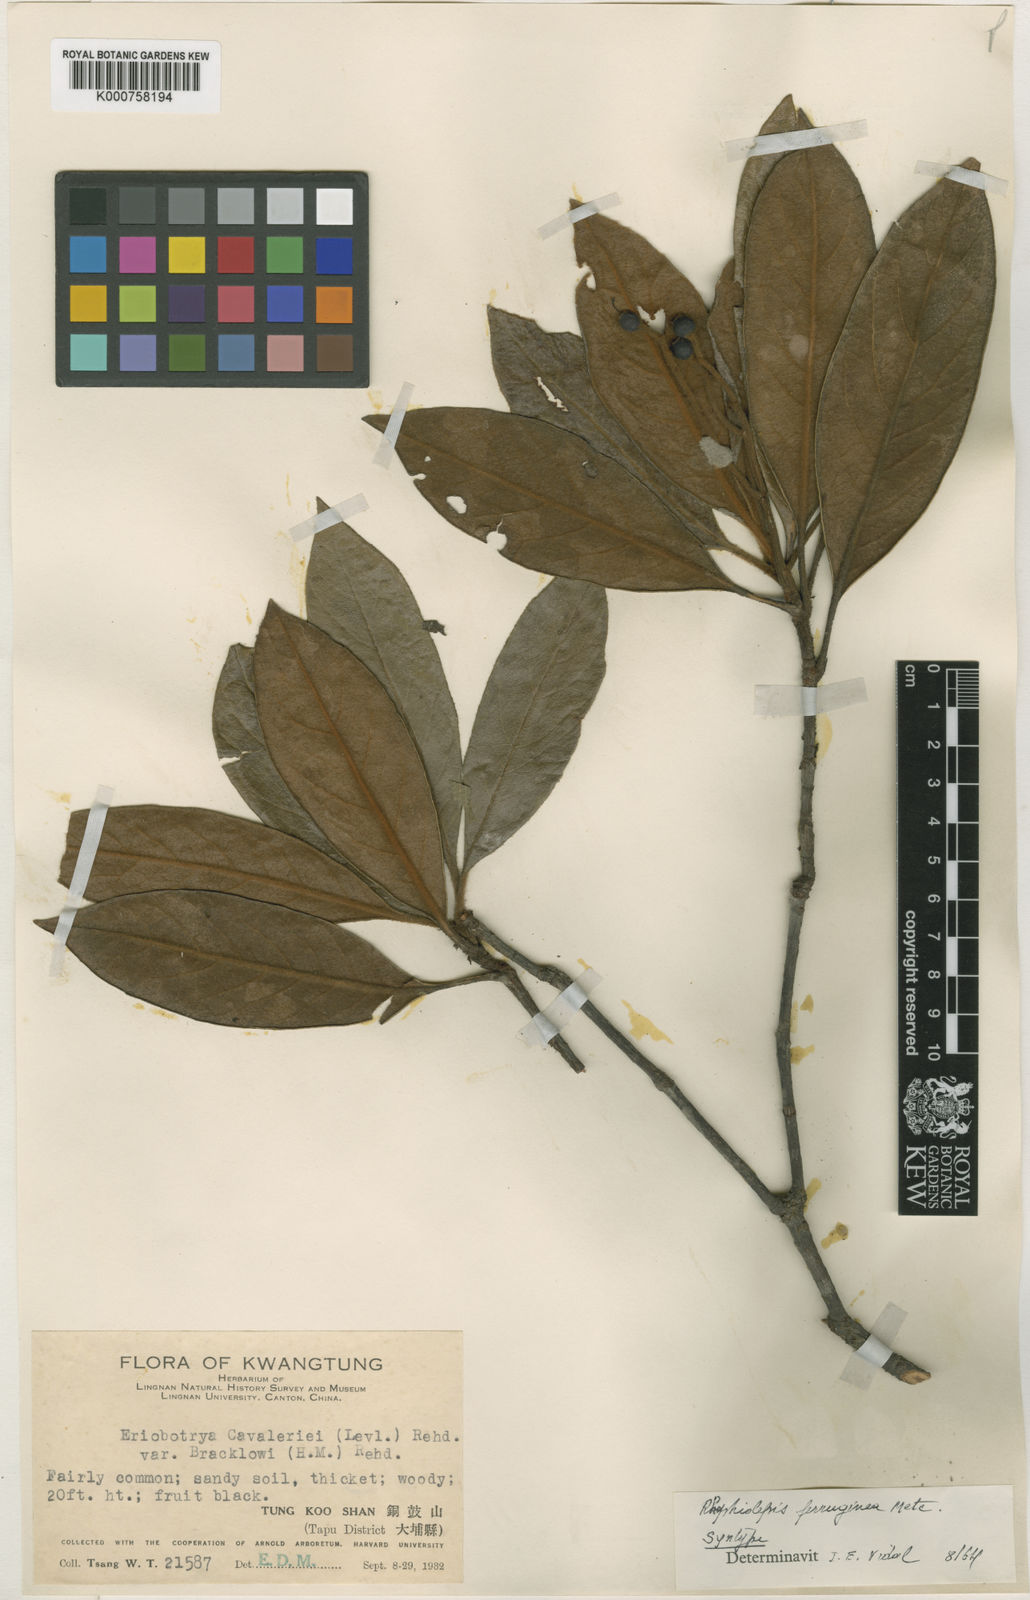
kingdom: Plantae
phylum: Tracheophyta
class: Magnoliopsida
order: Rosales
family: Rosaceae
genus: Rhaphiolepis
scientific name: Rhaphiolepis ferruginea
